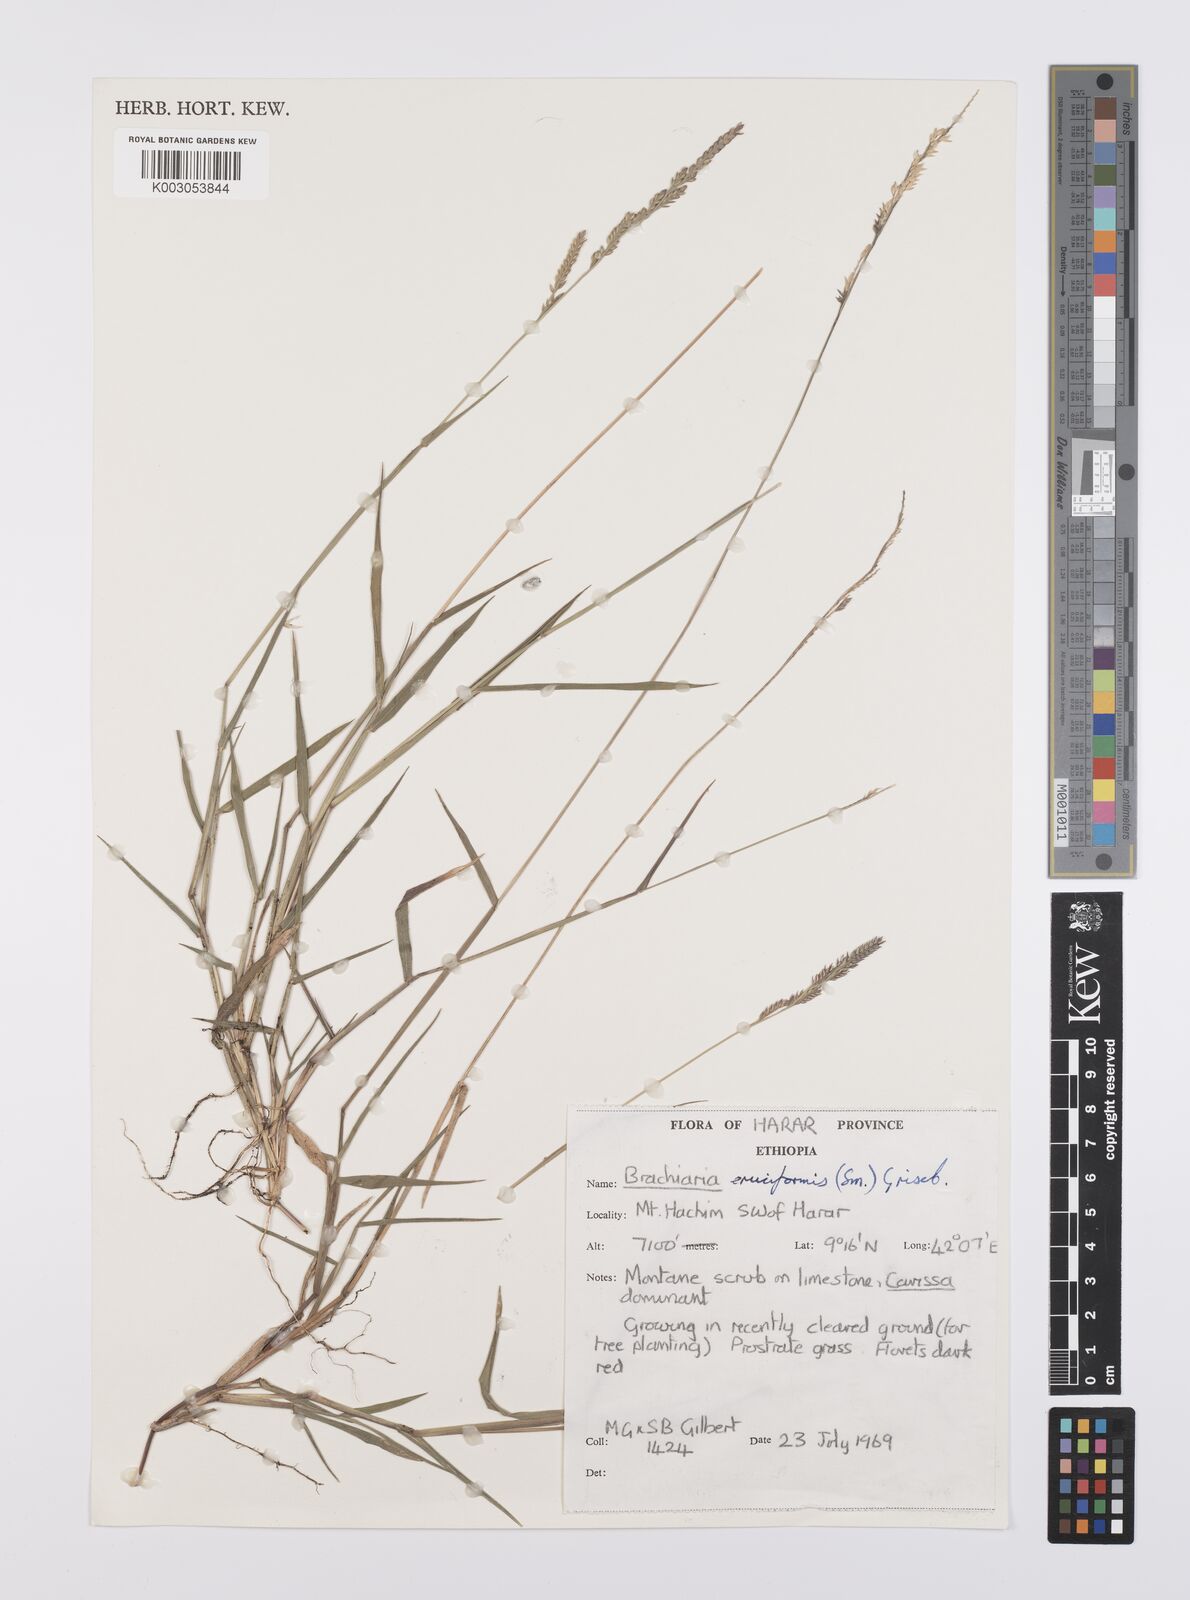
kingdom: Plantae
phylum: Tracheophyta
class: Liliopsida
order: Poales
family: Poaceae
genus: Moorochloa
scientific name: Moorochloa eruciformis
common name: Sweet signalgrass
